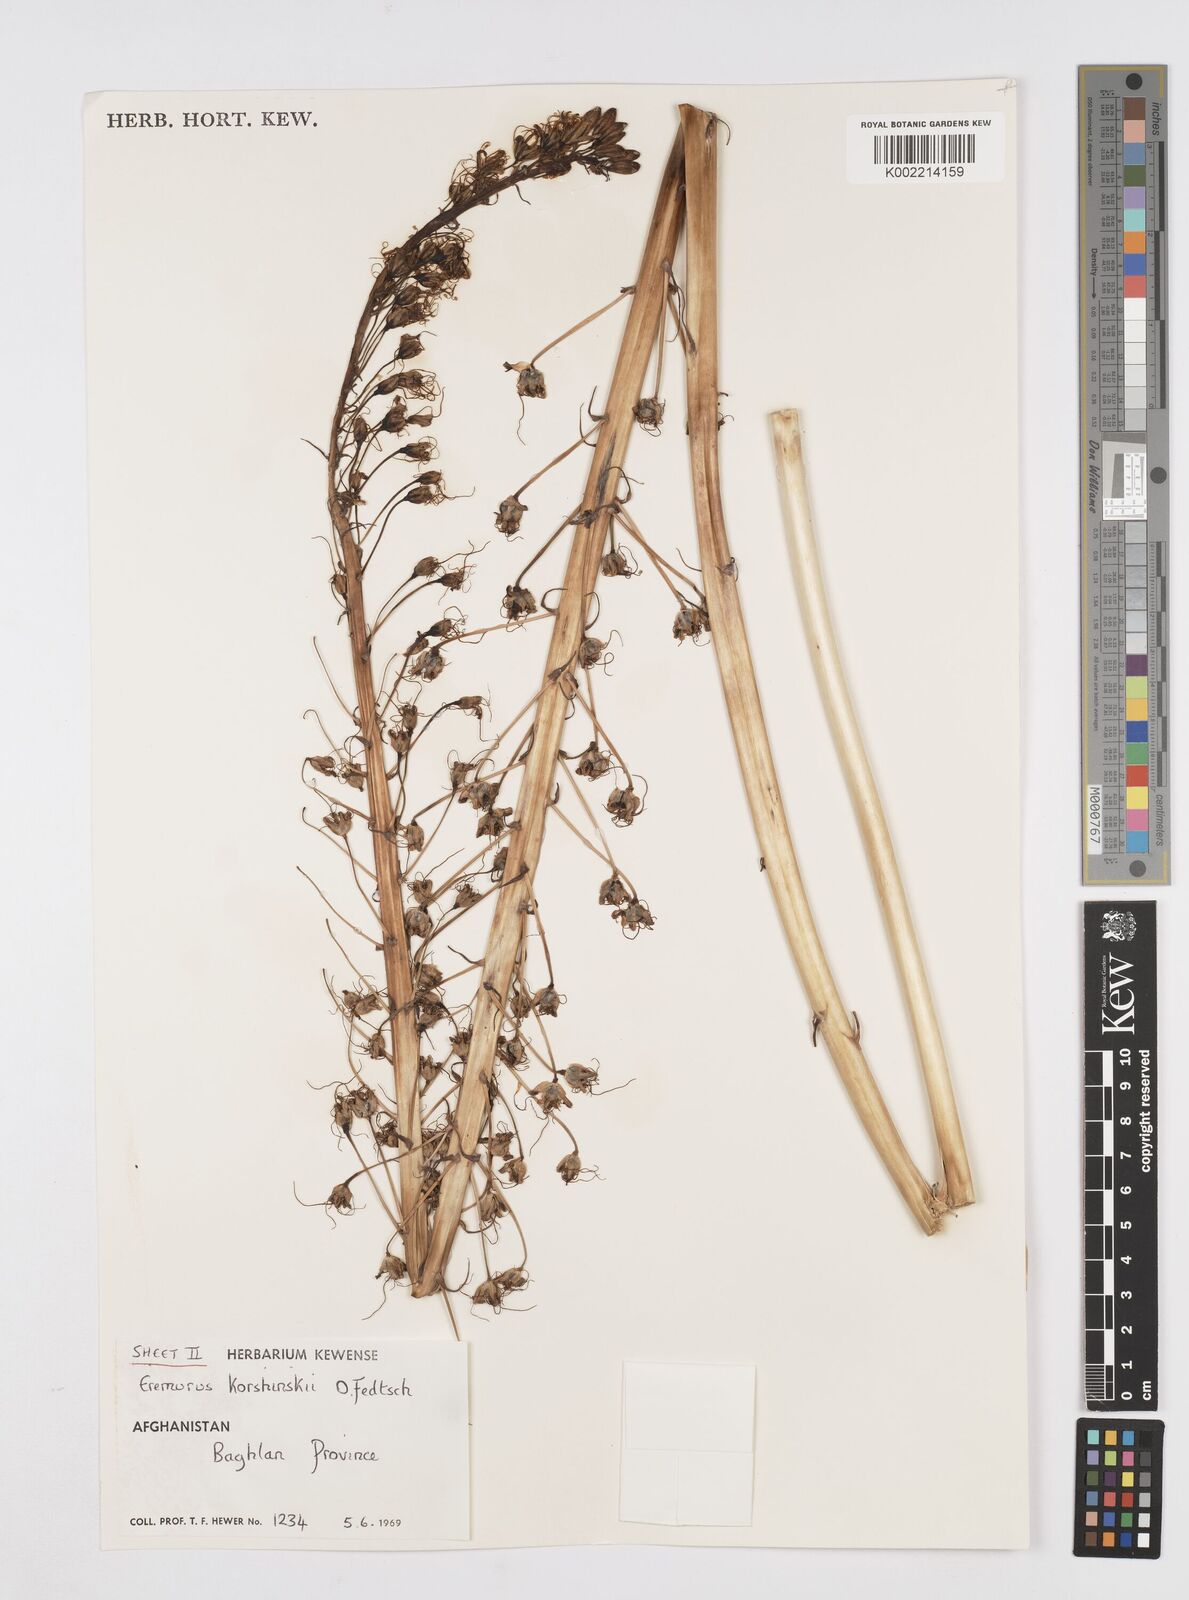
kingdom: Plantae
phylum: Tracheophyta
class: Liliopsida
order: Asparagales
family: Asphodelaceae
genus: Eremurus
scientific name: Eremurus korshinskyi
